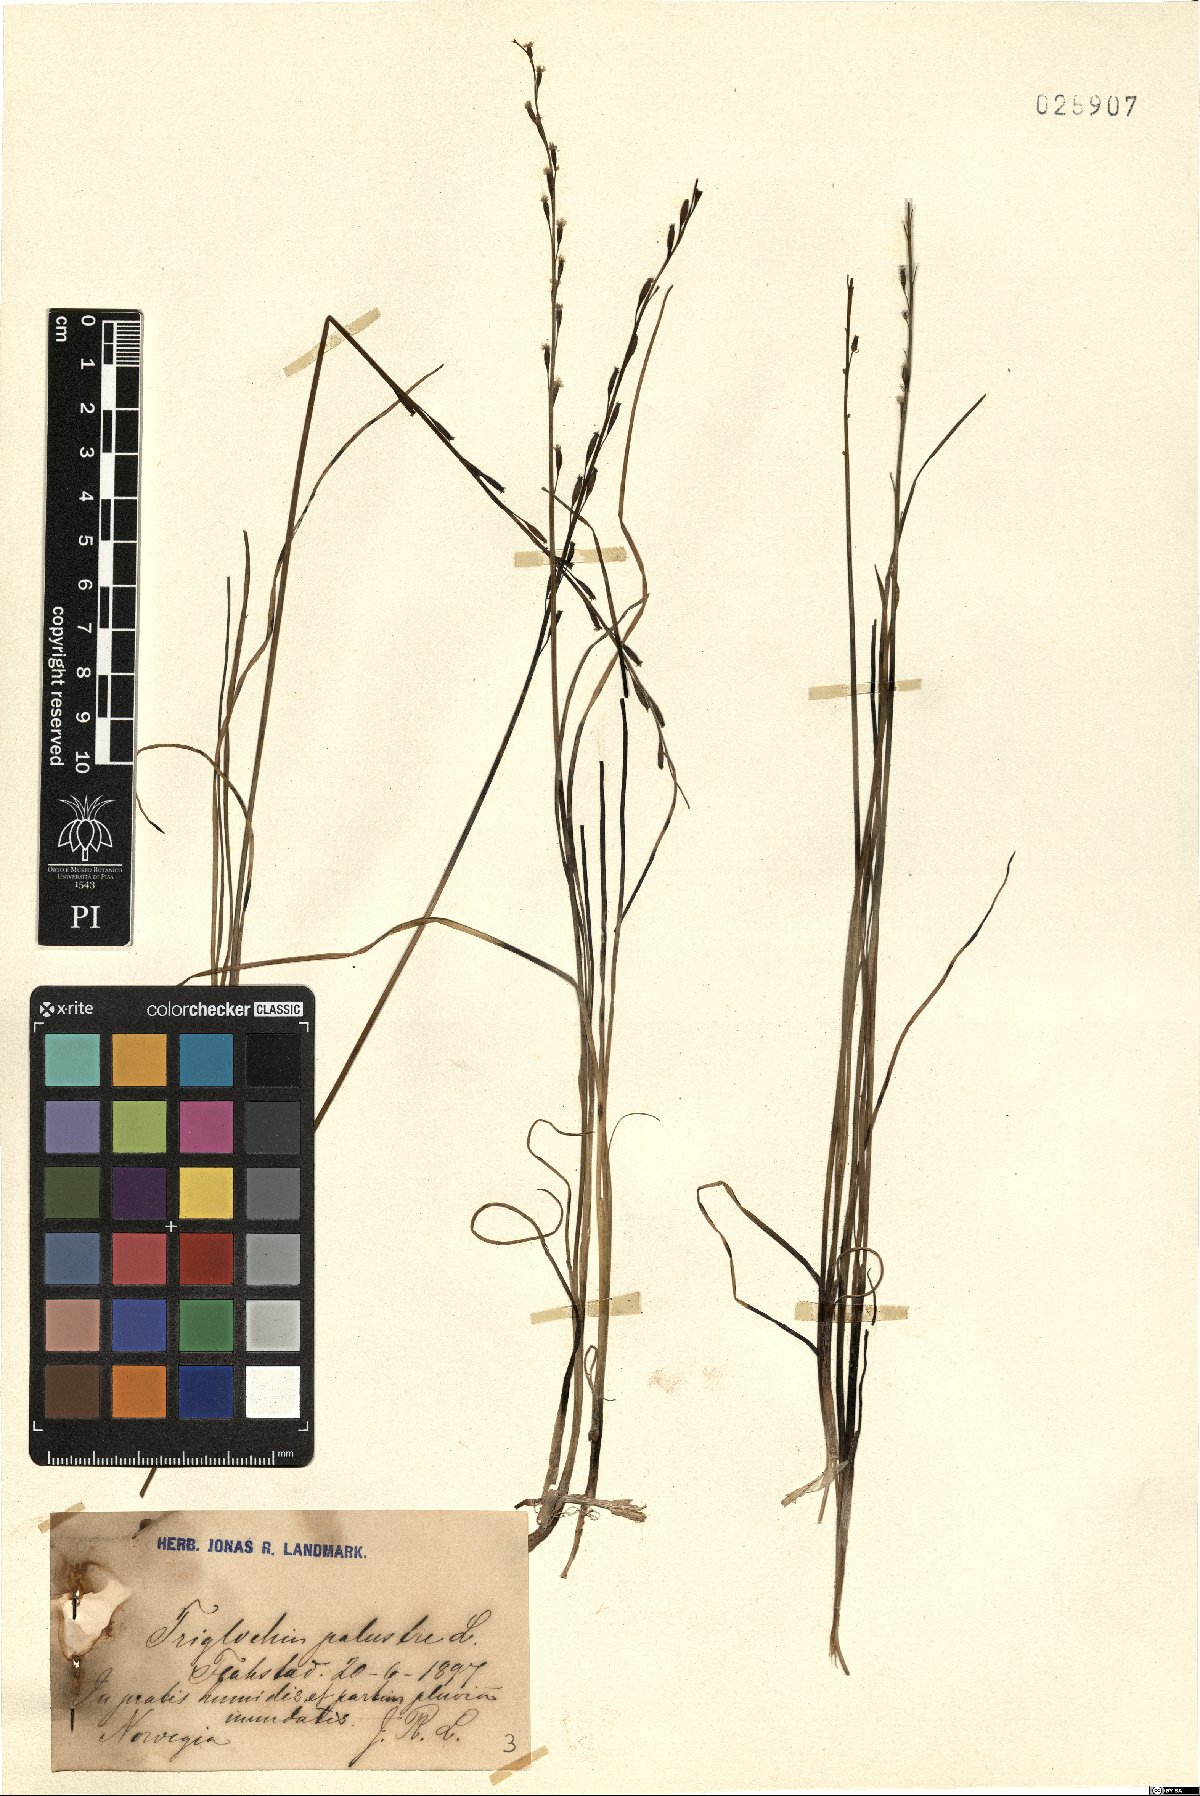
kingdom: Plantae
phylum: Tracheophyta
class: Liliopsida
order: Alismatales
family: Juncaginaceae
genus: Triglochin
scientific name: Triglochin palustris
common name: Marsh arrowgrass
